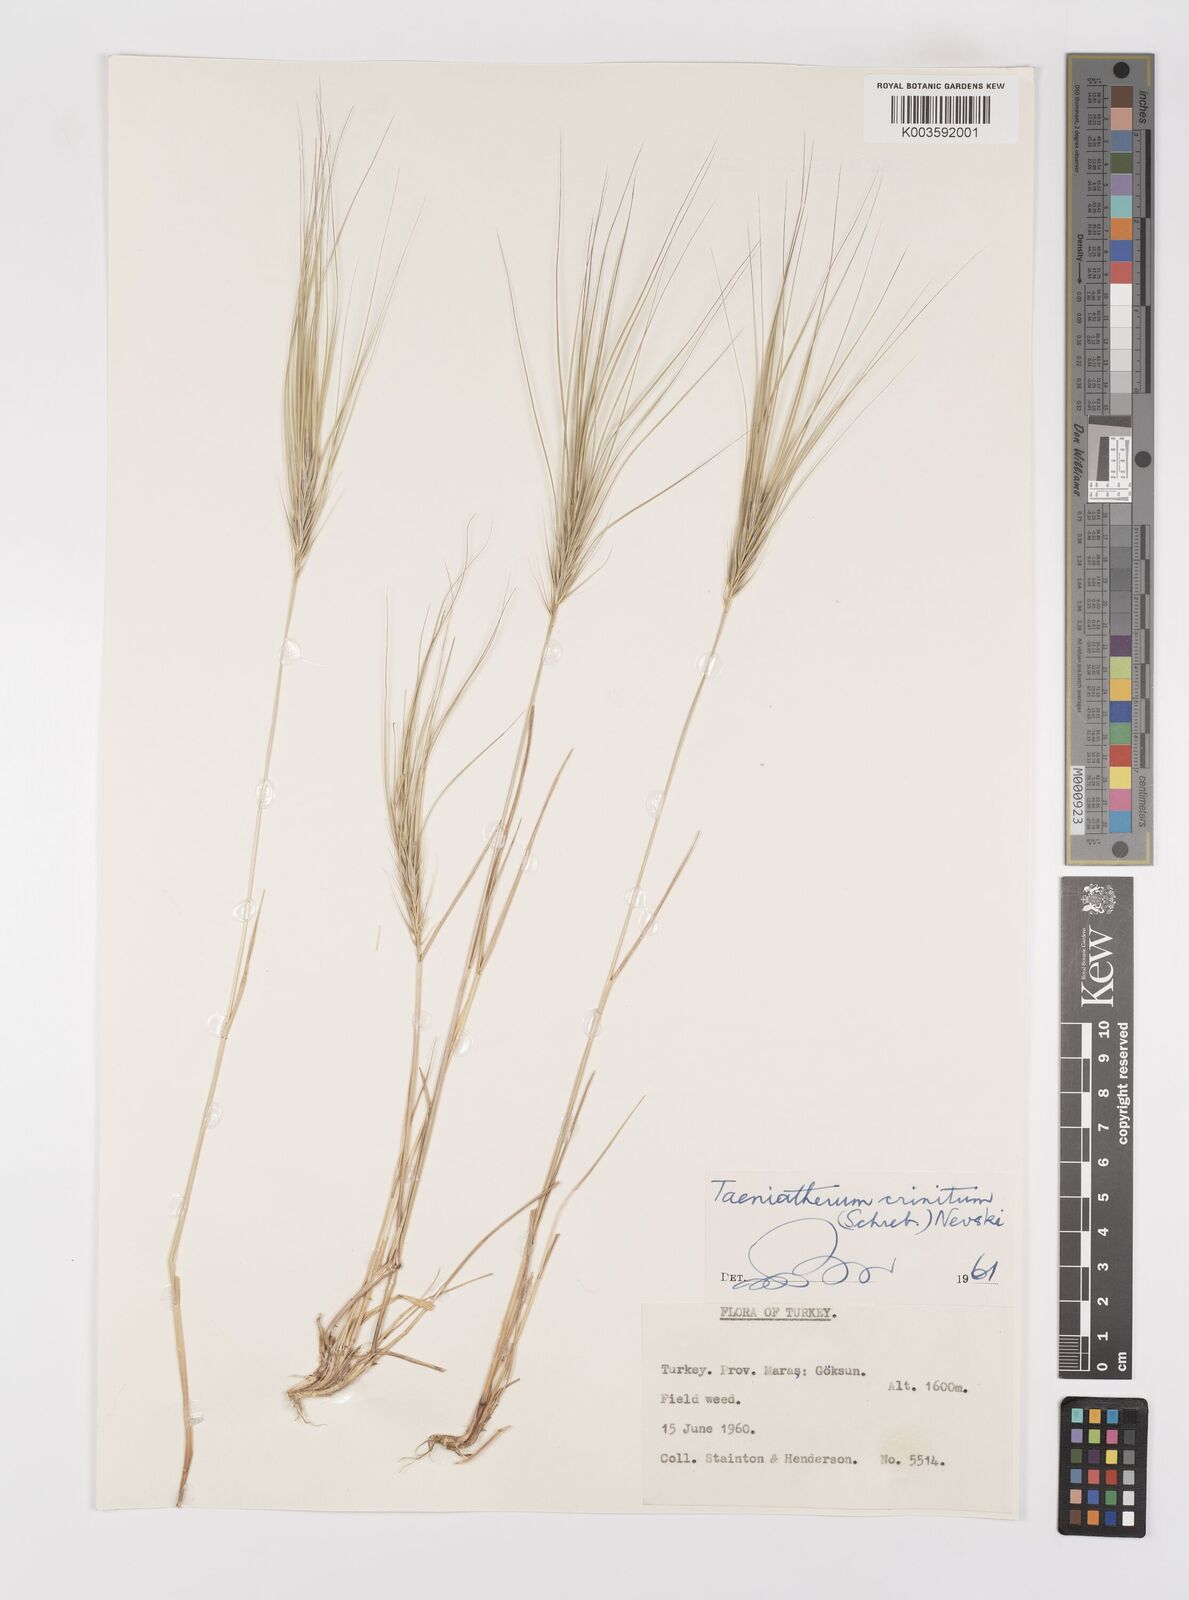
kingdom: Plantae
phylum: Tracheophyta
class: Liliopsida
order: Poales
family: Poaceae
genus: Taeniatherum
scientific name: Taeniatherum caput-medusae
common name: Medusahead
